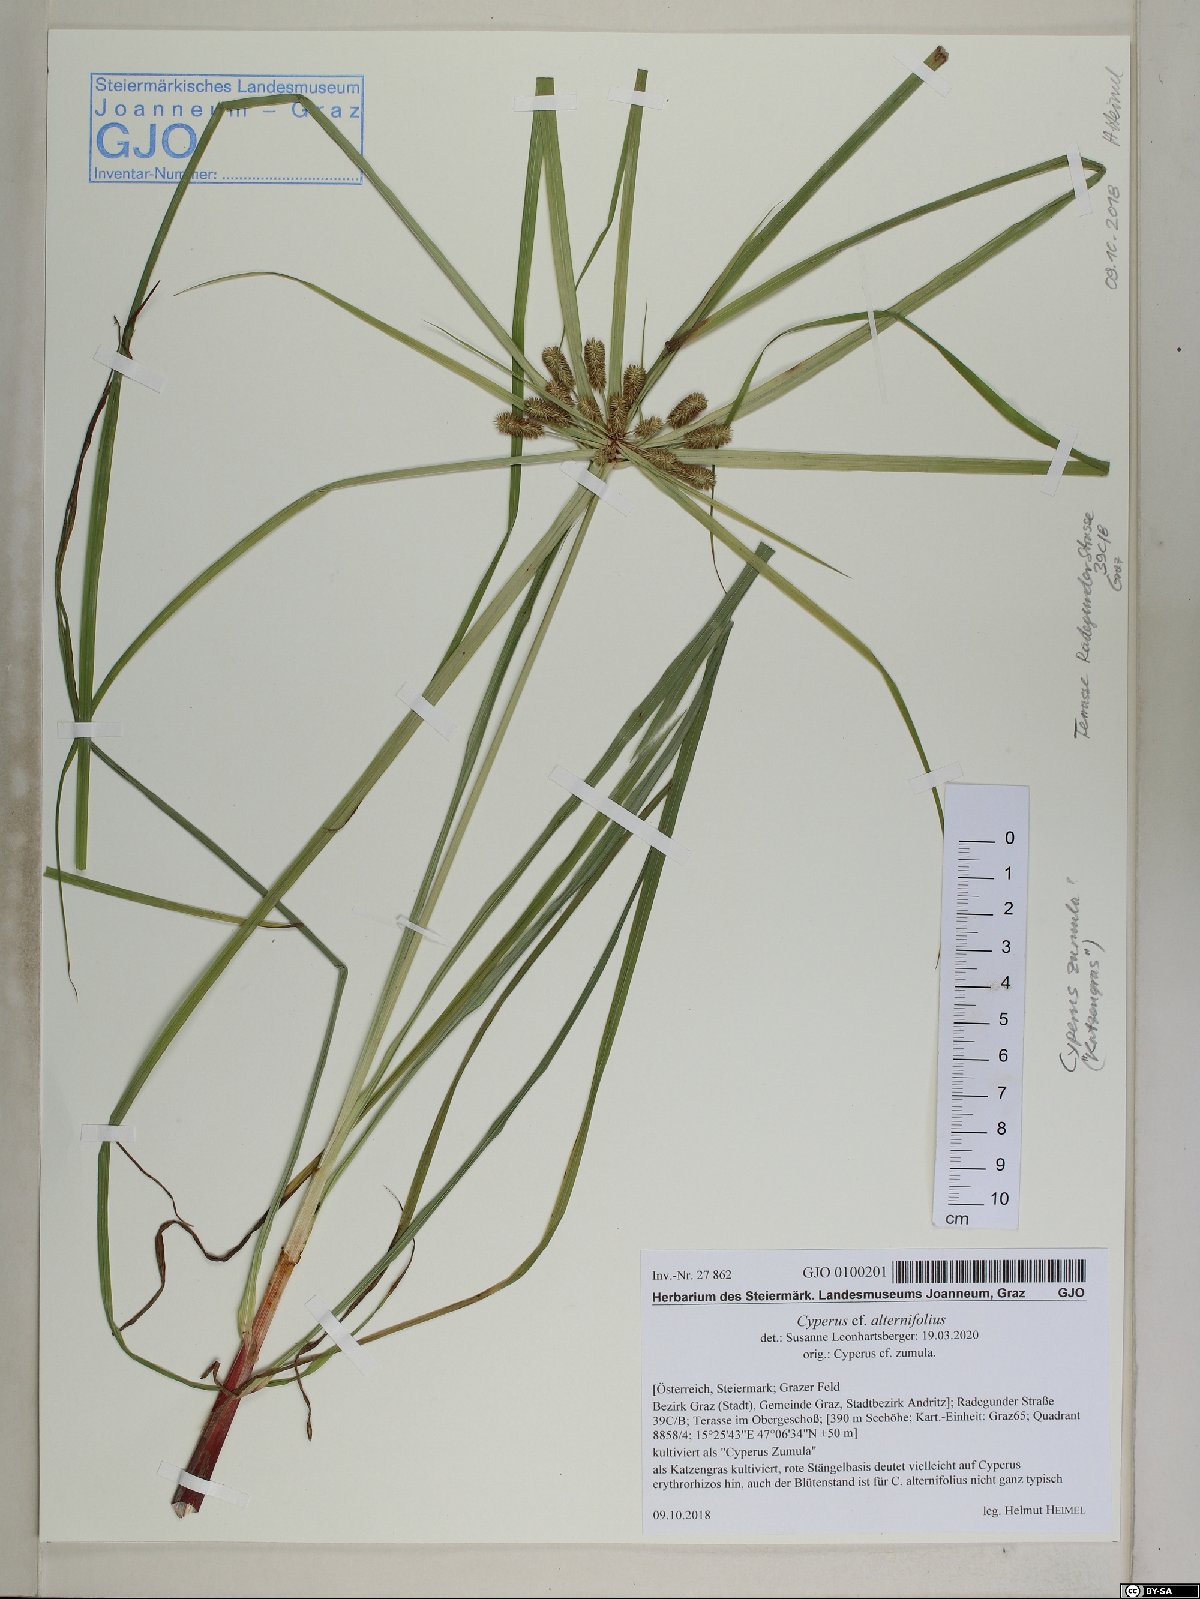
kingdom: Plantae
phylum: Tracheophyta
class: Liliopsida
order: Poales
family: Cyperaceae
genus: Cyperus
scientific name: Cyperus alternifolius
